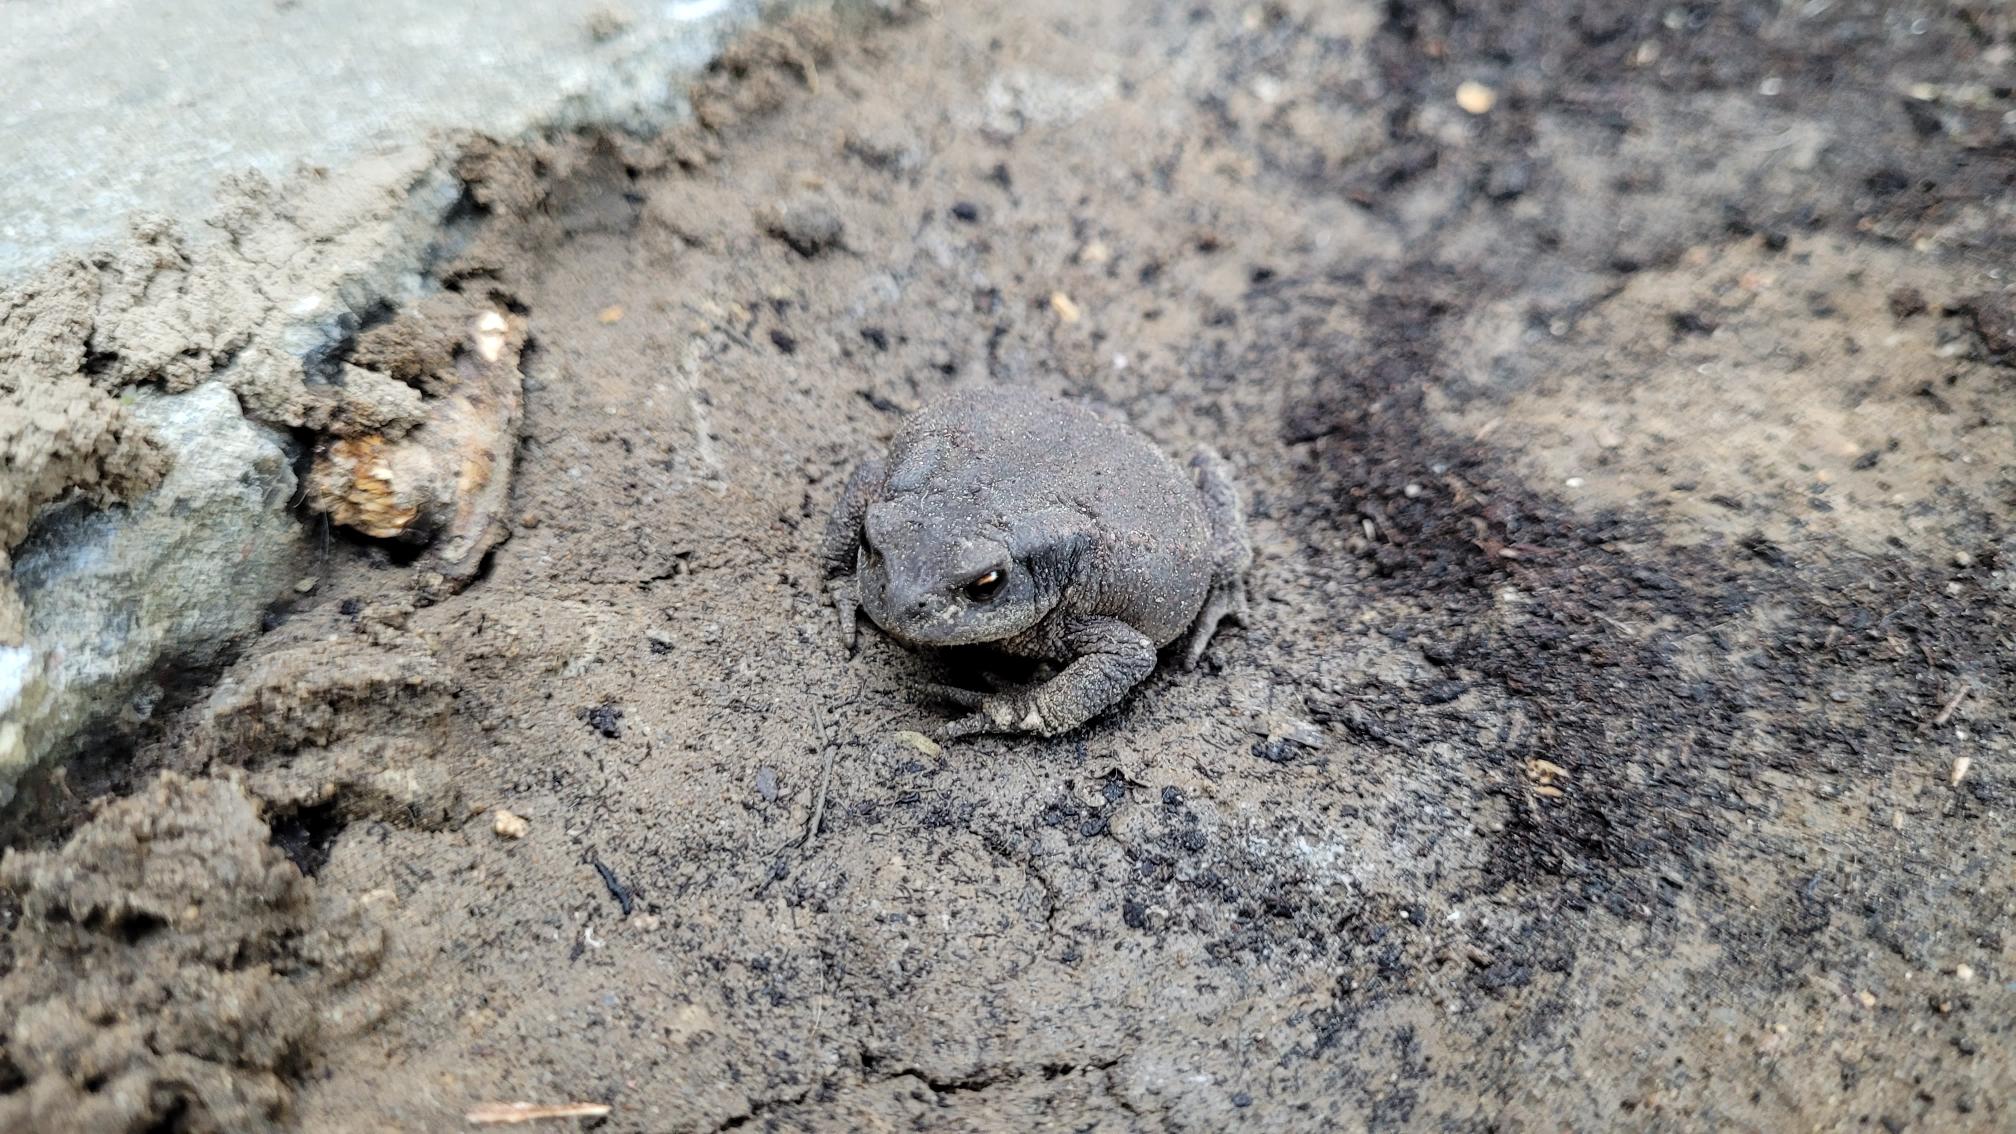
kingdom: Animalia
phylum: Chordata
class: Amphibia
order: Anura
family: Bufonidae
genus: Bufo
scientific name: Bufo bufo
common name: Skrubtudse
